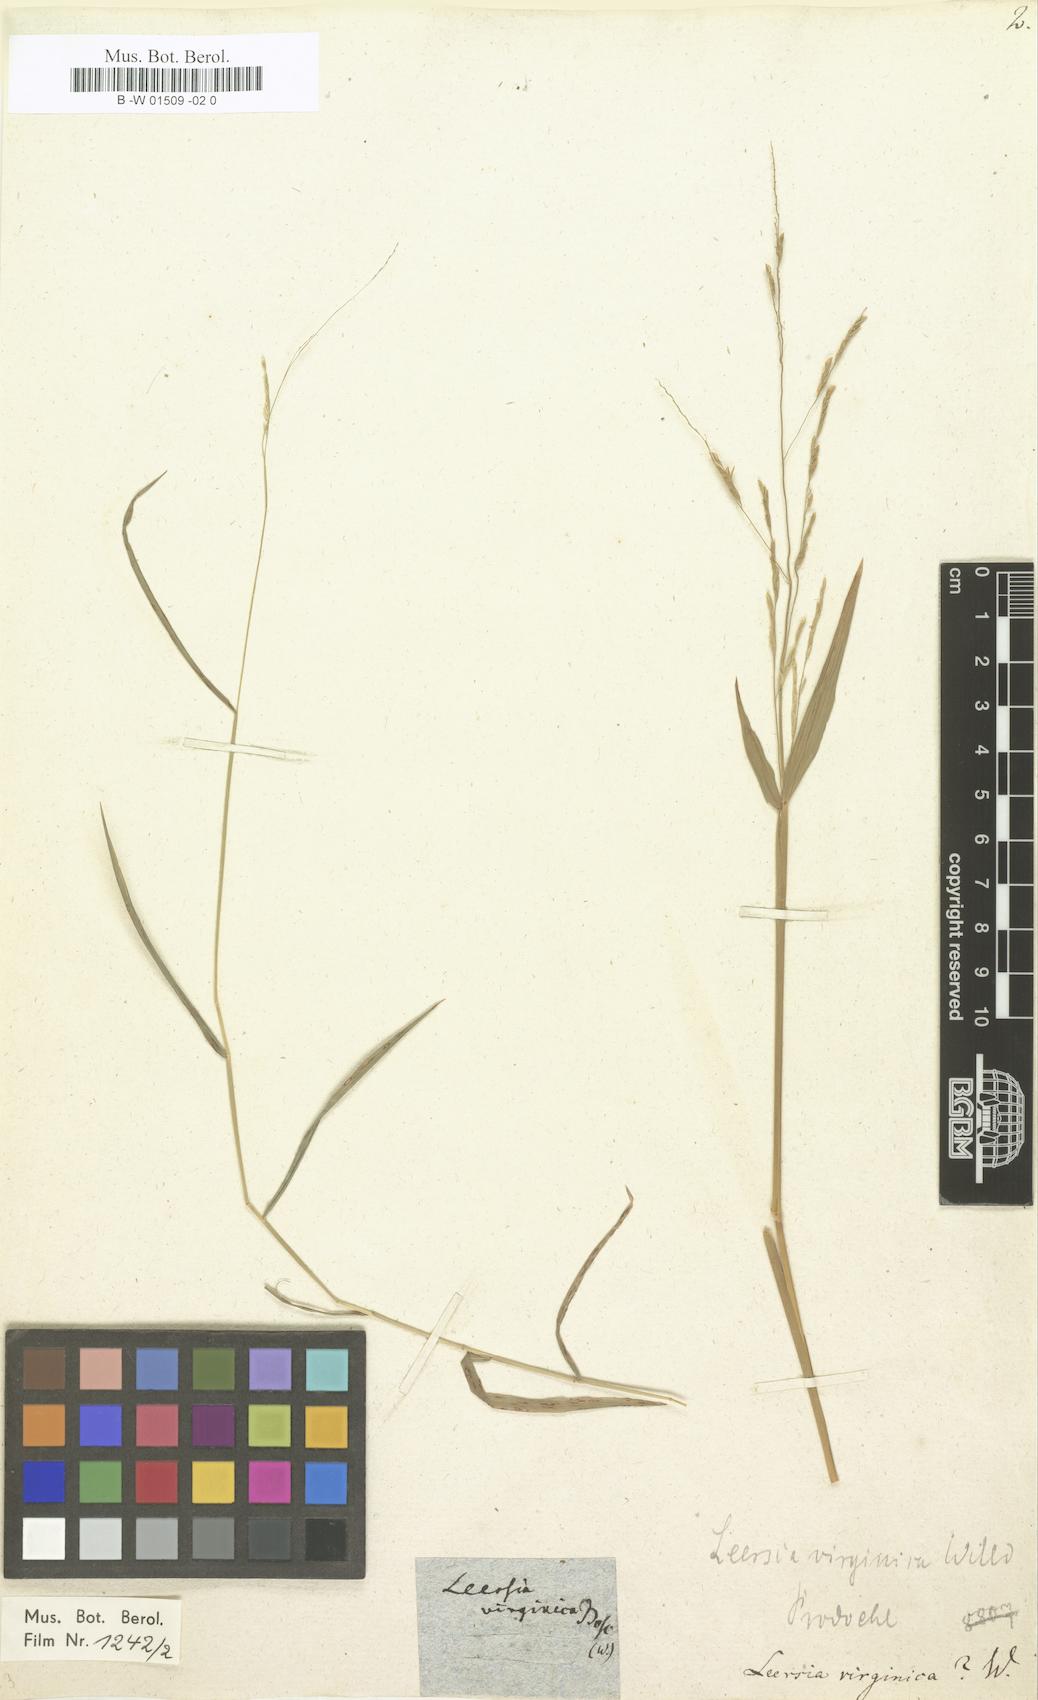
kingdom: Plantae
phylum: Tracheophyta
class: Liliopsida
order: Poales
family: Poaceae
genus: Leersia
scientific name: Leersia virginica
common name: White cutgrass
